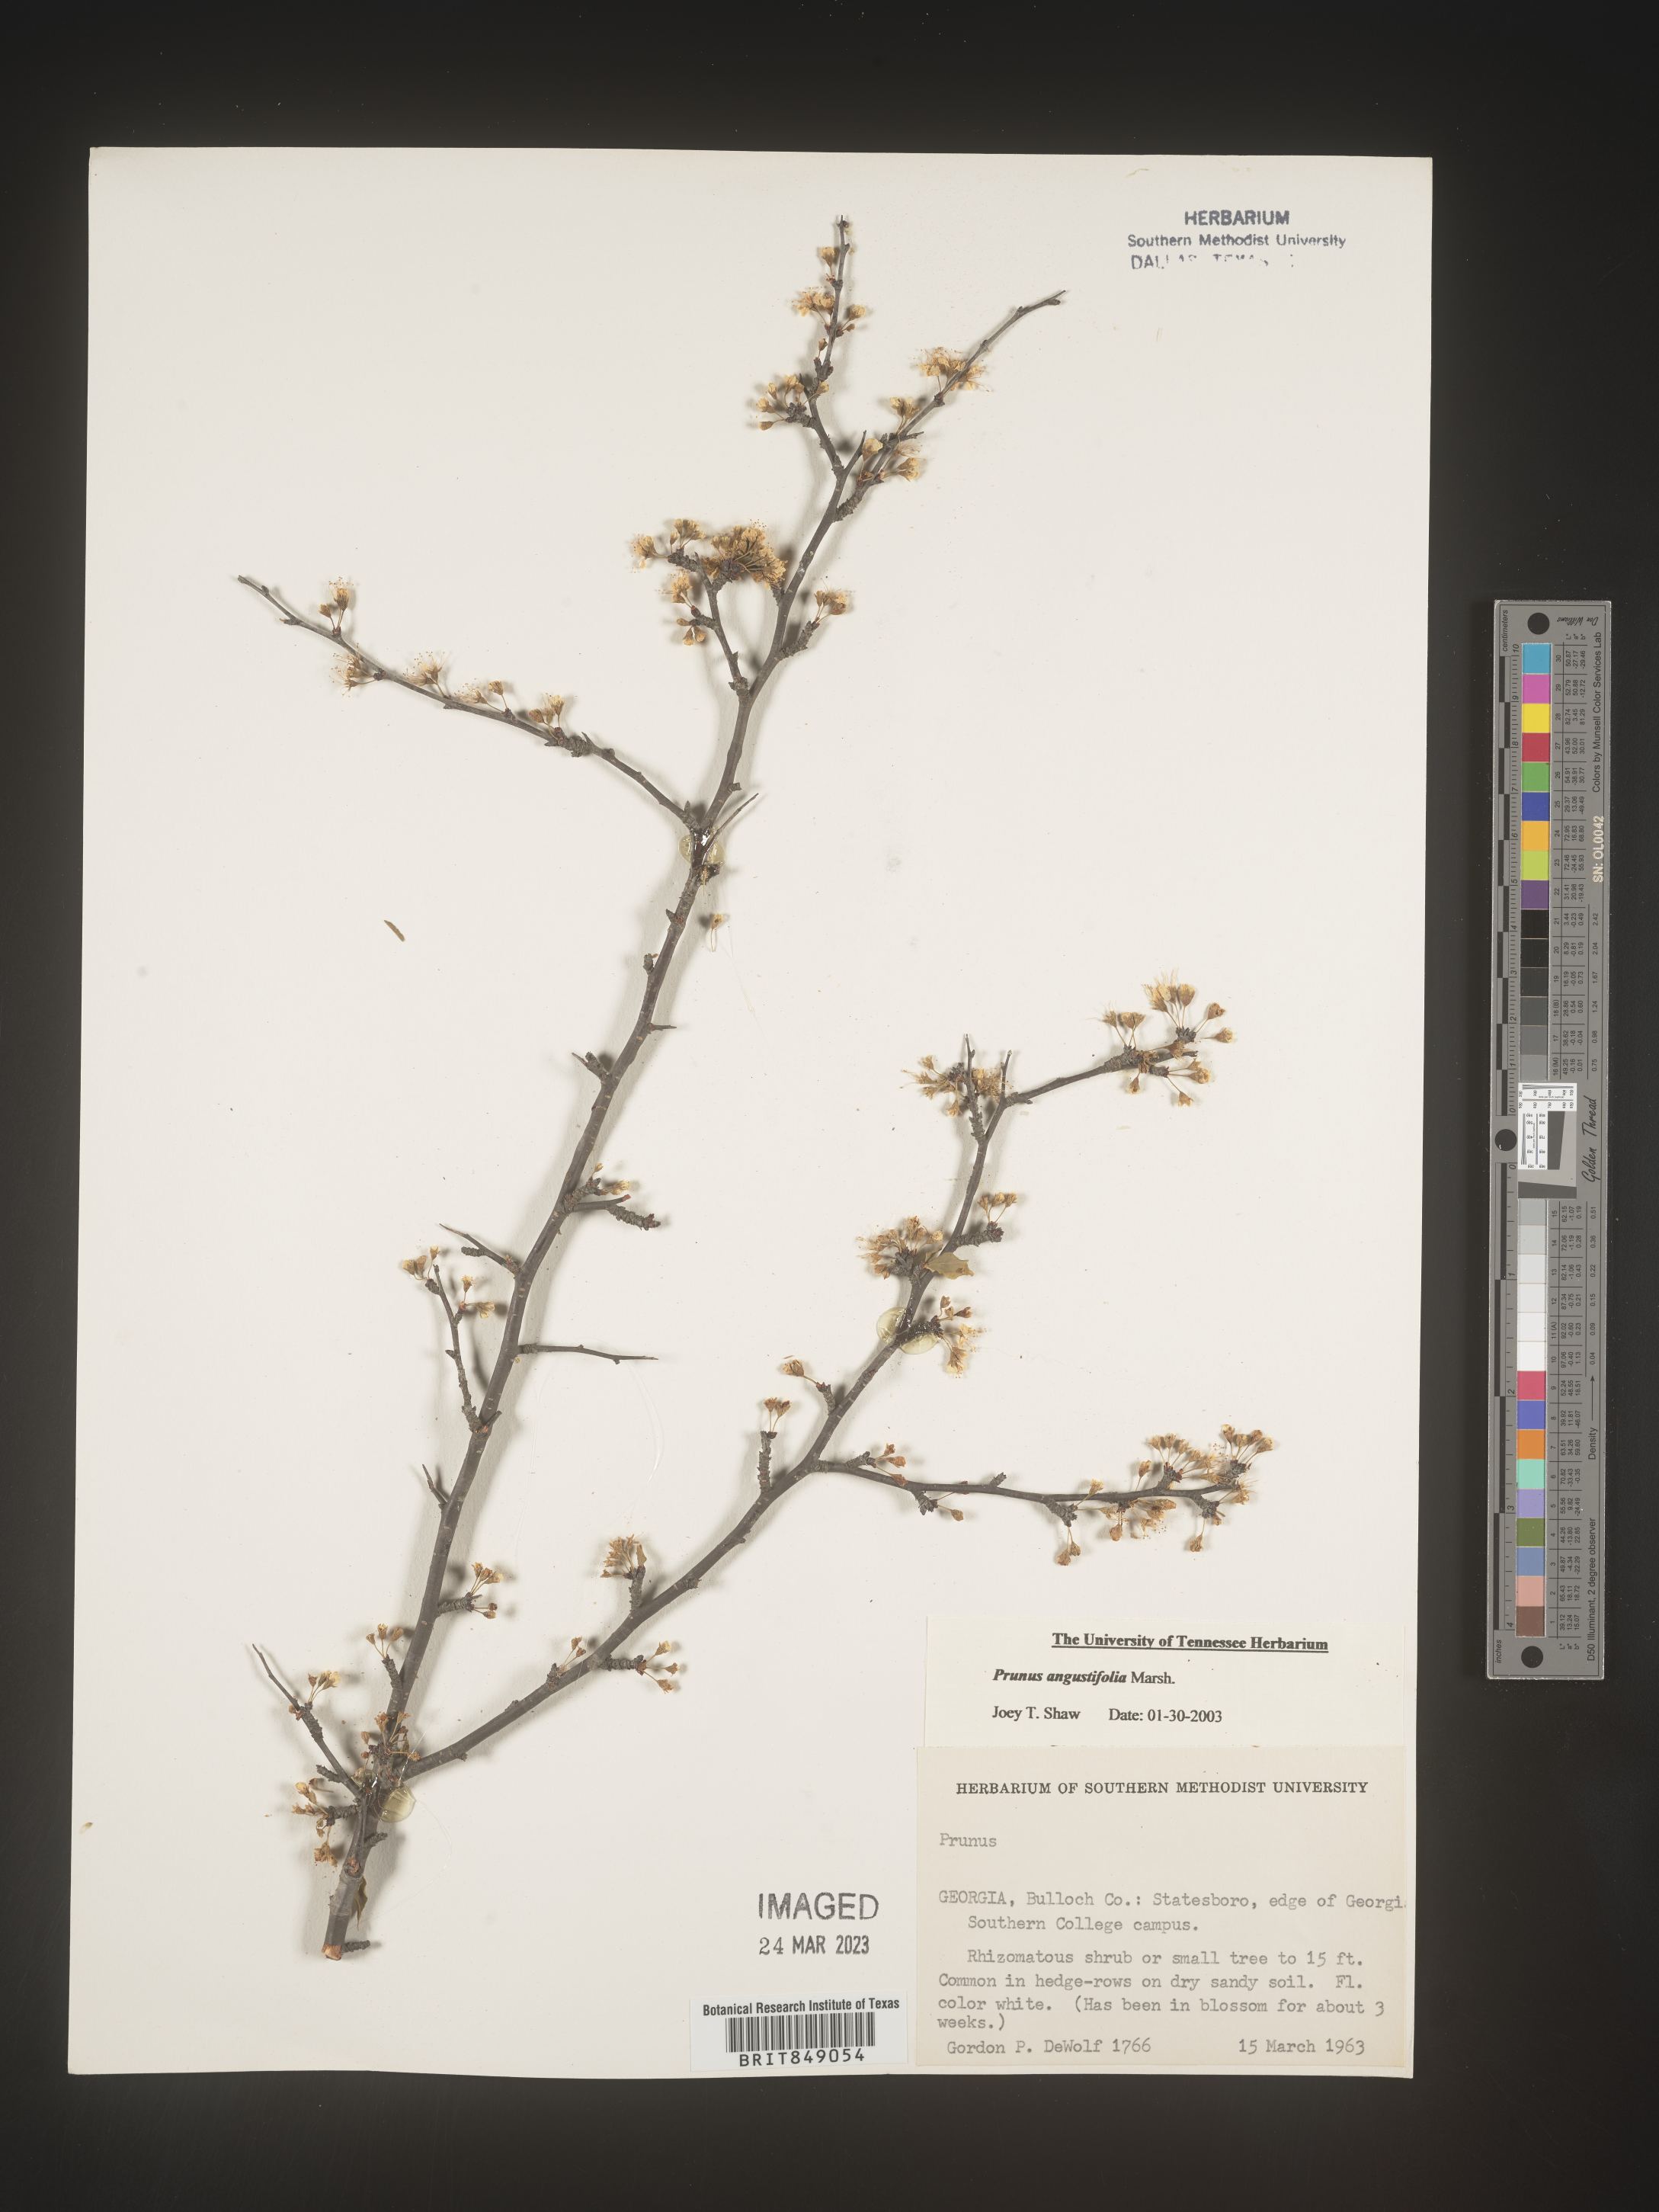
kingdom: Plantae
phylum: Tracheophyta
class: Magnoliopsida
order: Rosales
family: Rosaceae
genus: Prunus
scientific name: Prunus angustifolia
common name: Cherokee plum
